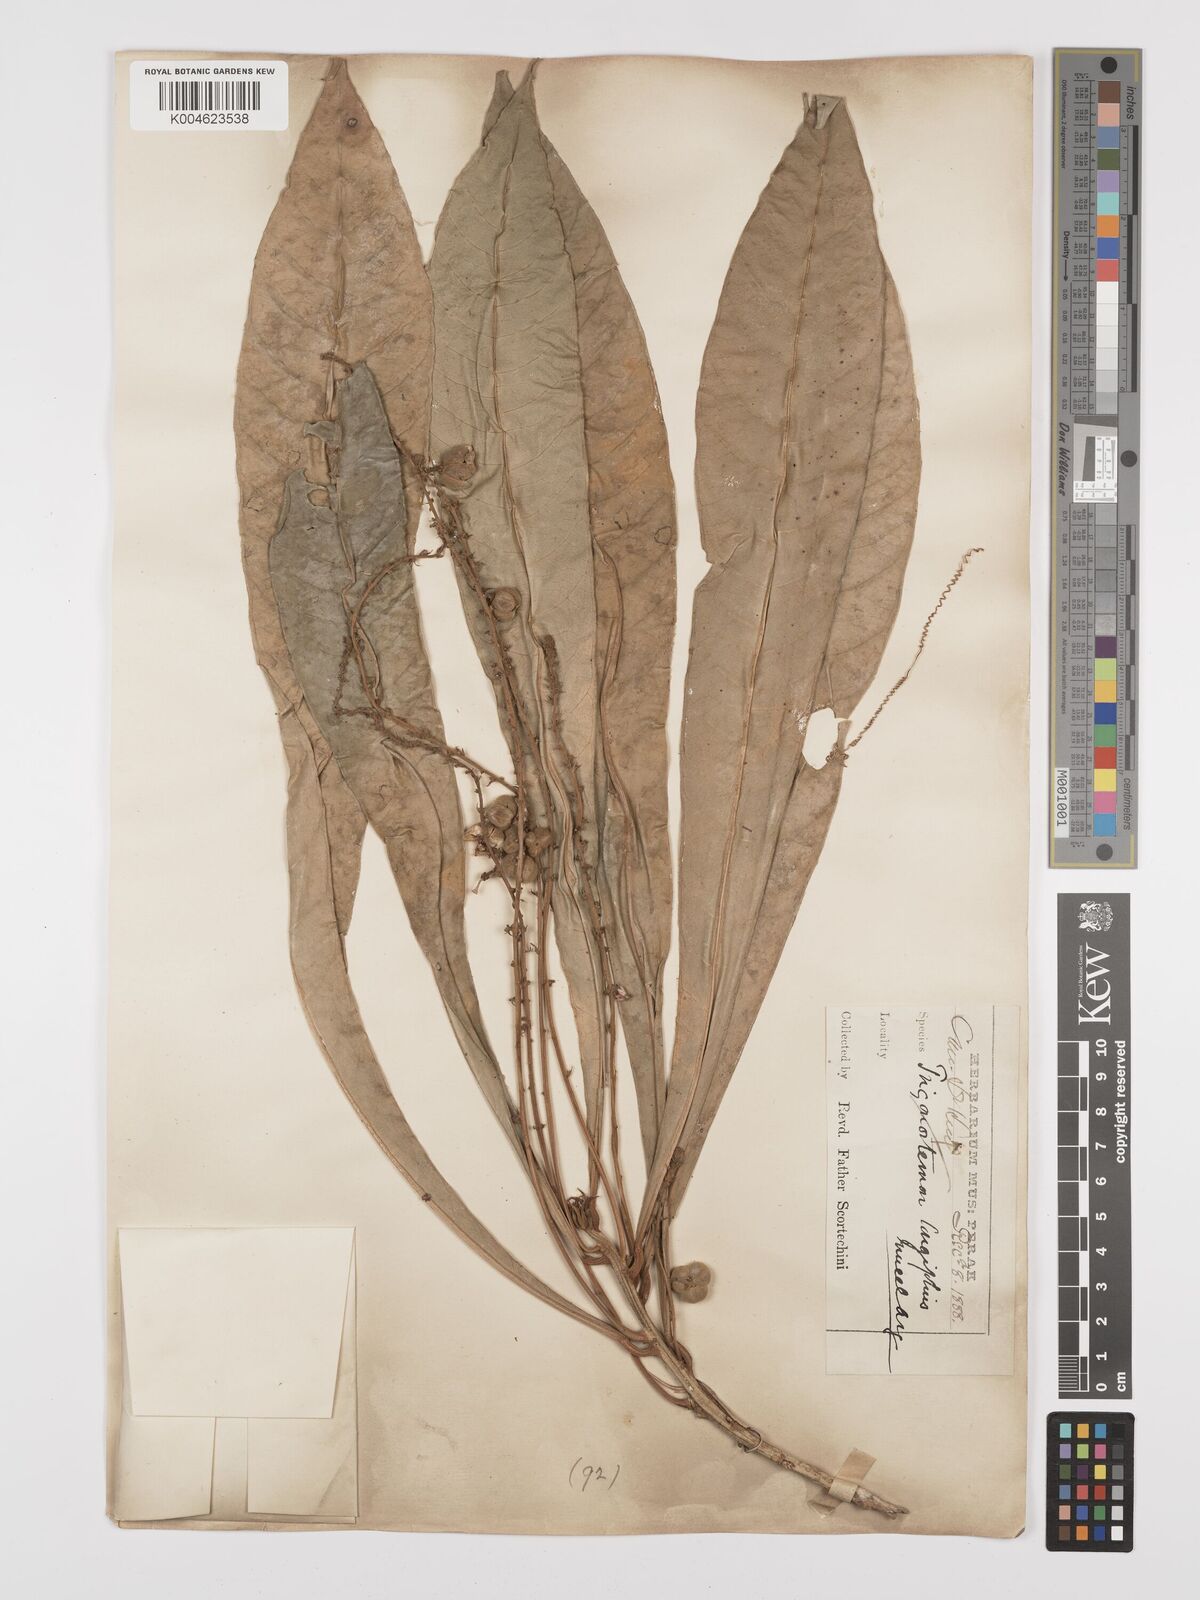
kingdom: Plantae
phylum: Tracheophyta
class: Magnoliopsida
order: Malpighiales
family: Euphorbiaceae
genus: Trigonostemon
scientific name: Trigonostemon longifolius
